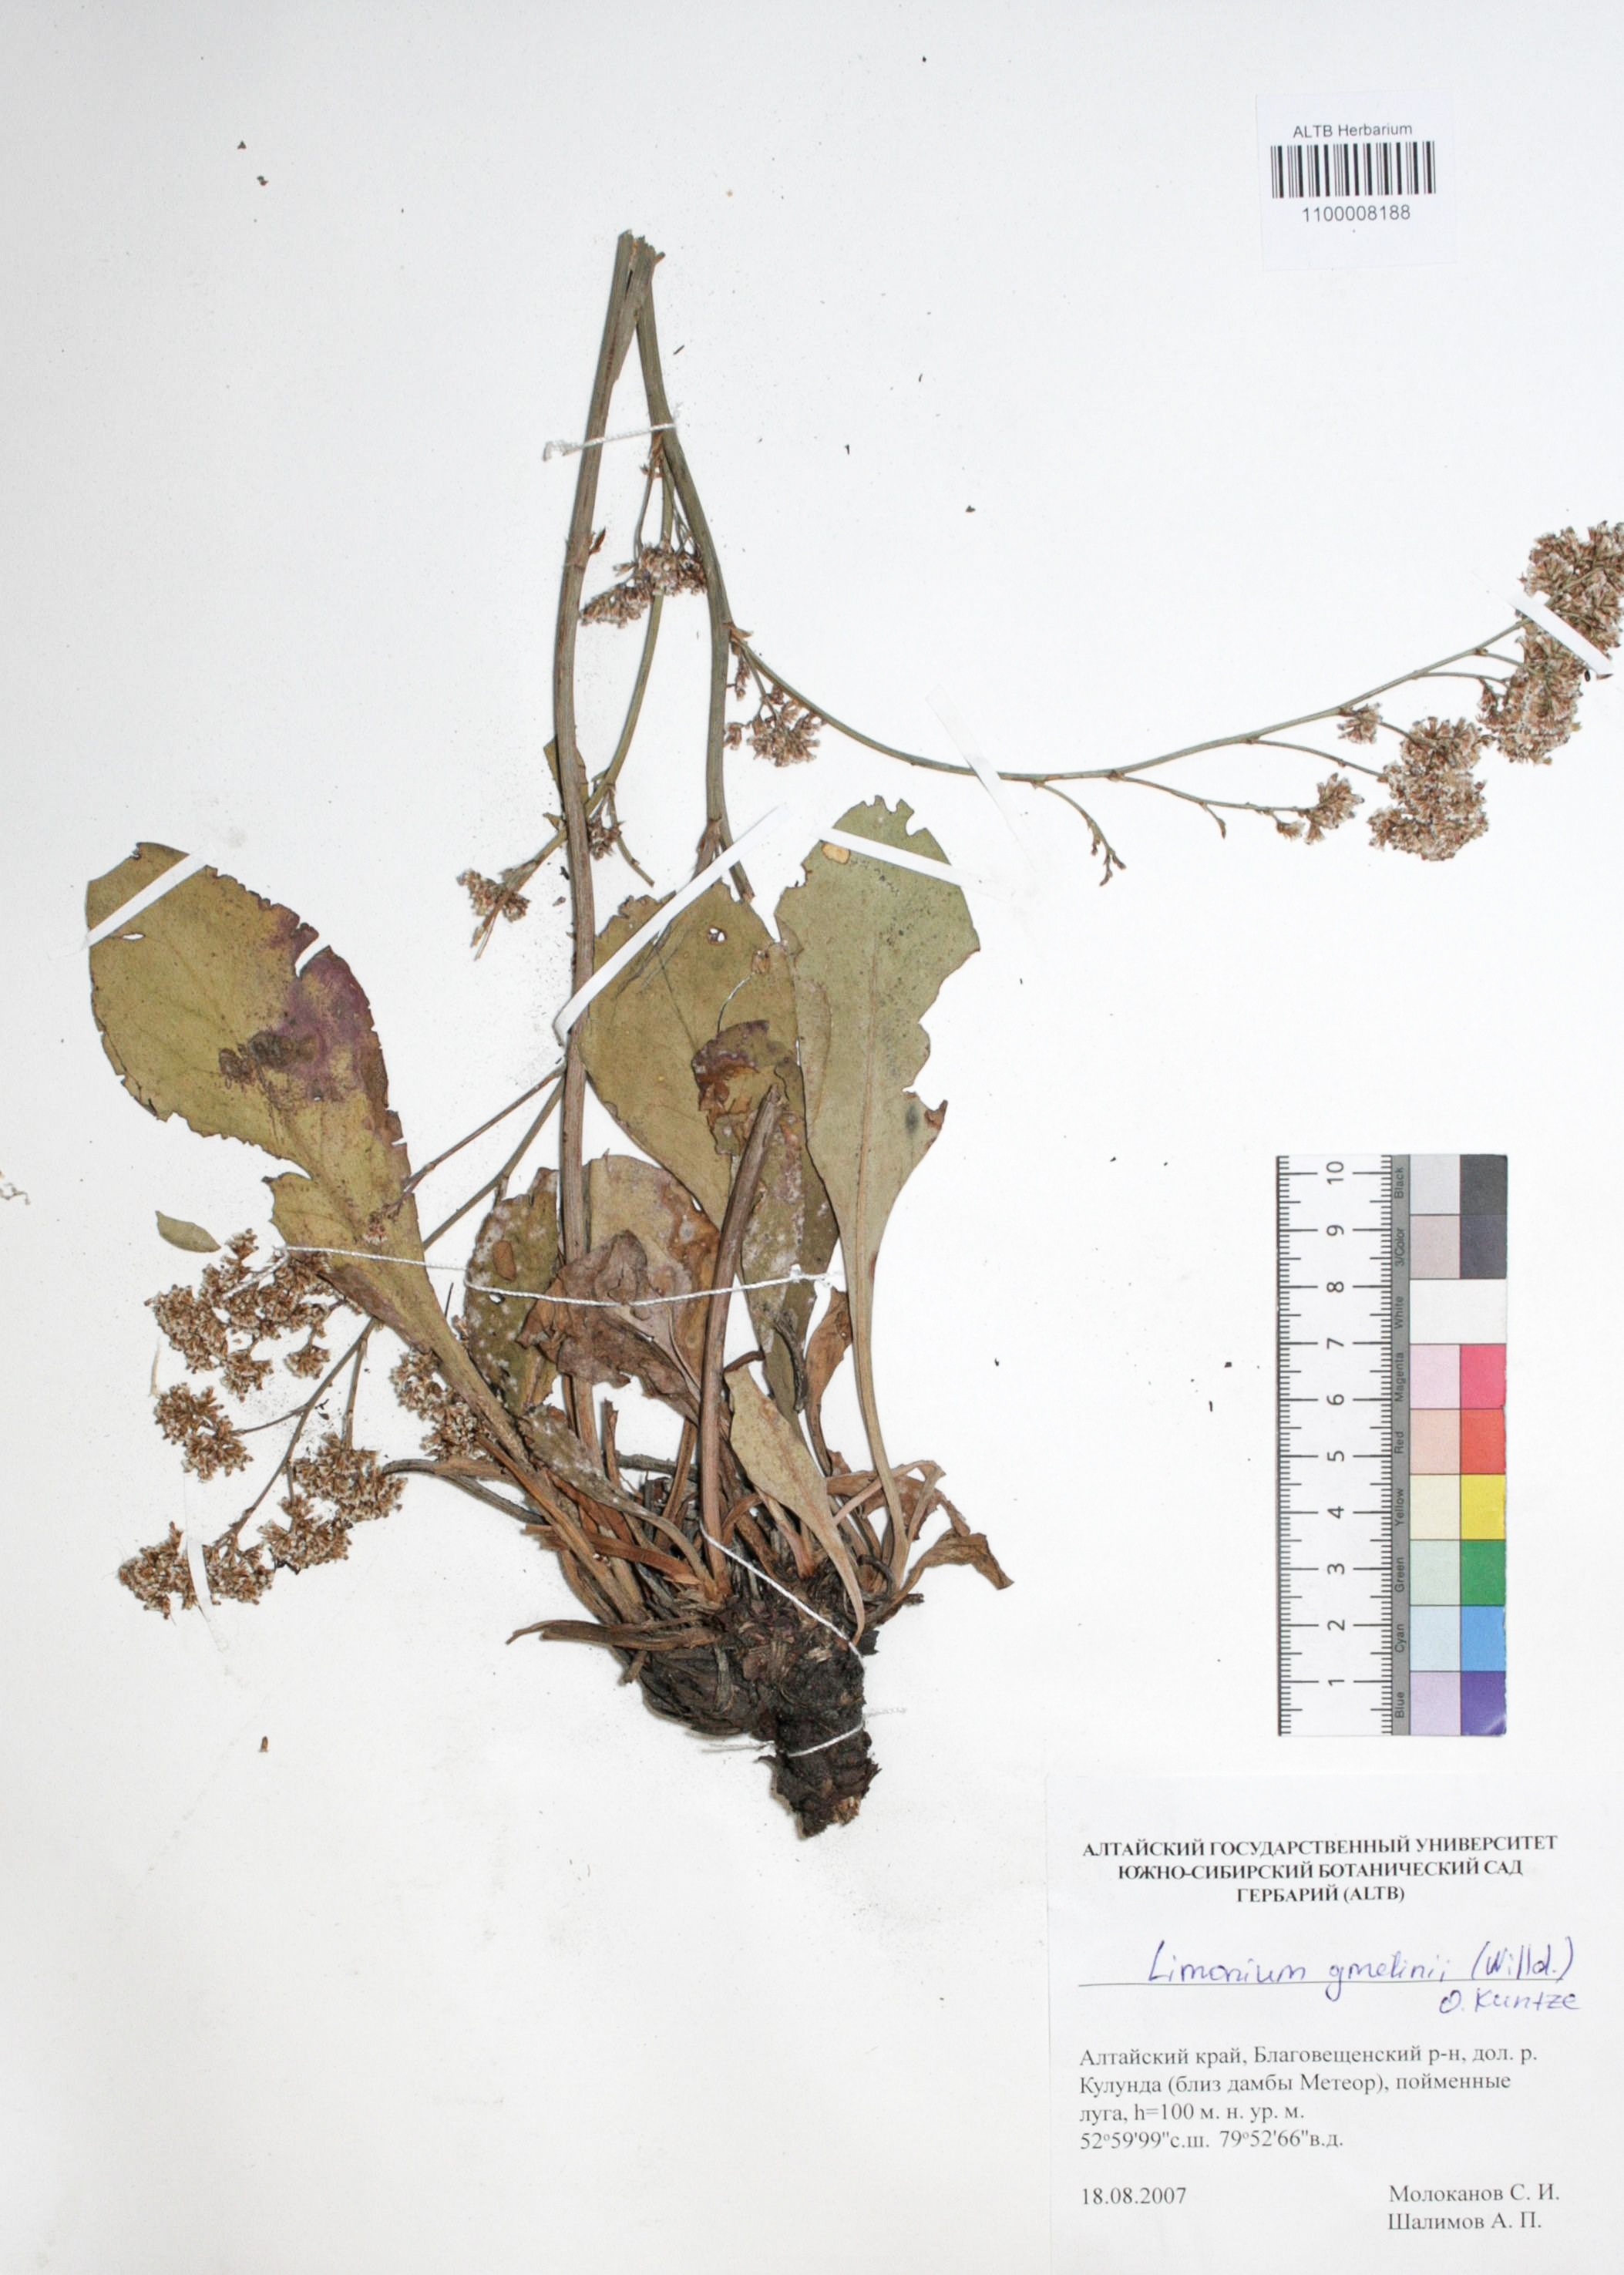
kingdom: Plantae
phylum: Tracheophyta
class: Magnoliopsida
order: Caryophyllales
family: Plumbaginaceae
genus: Limonium
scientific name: Limonium gmelini
